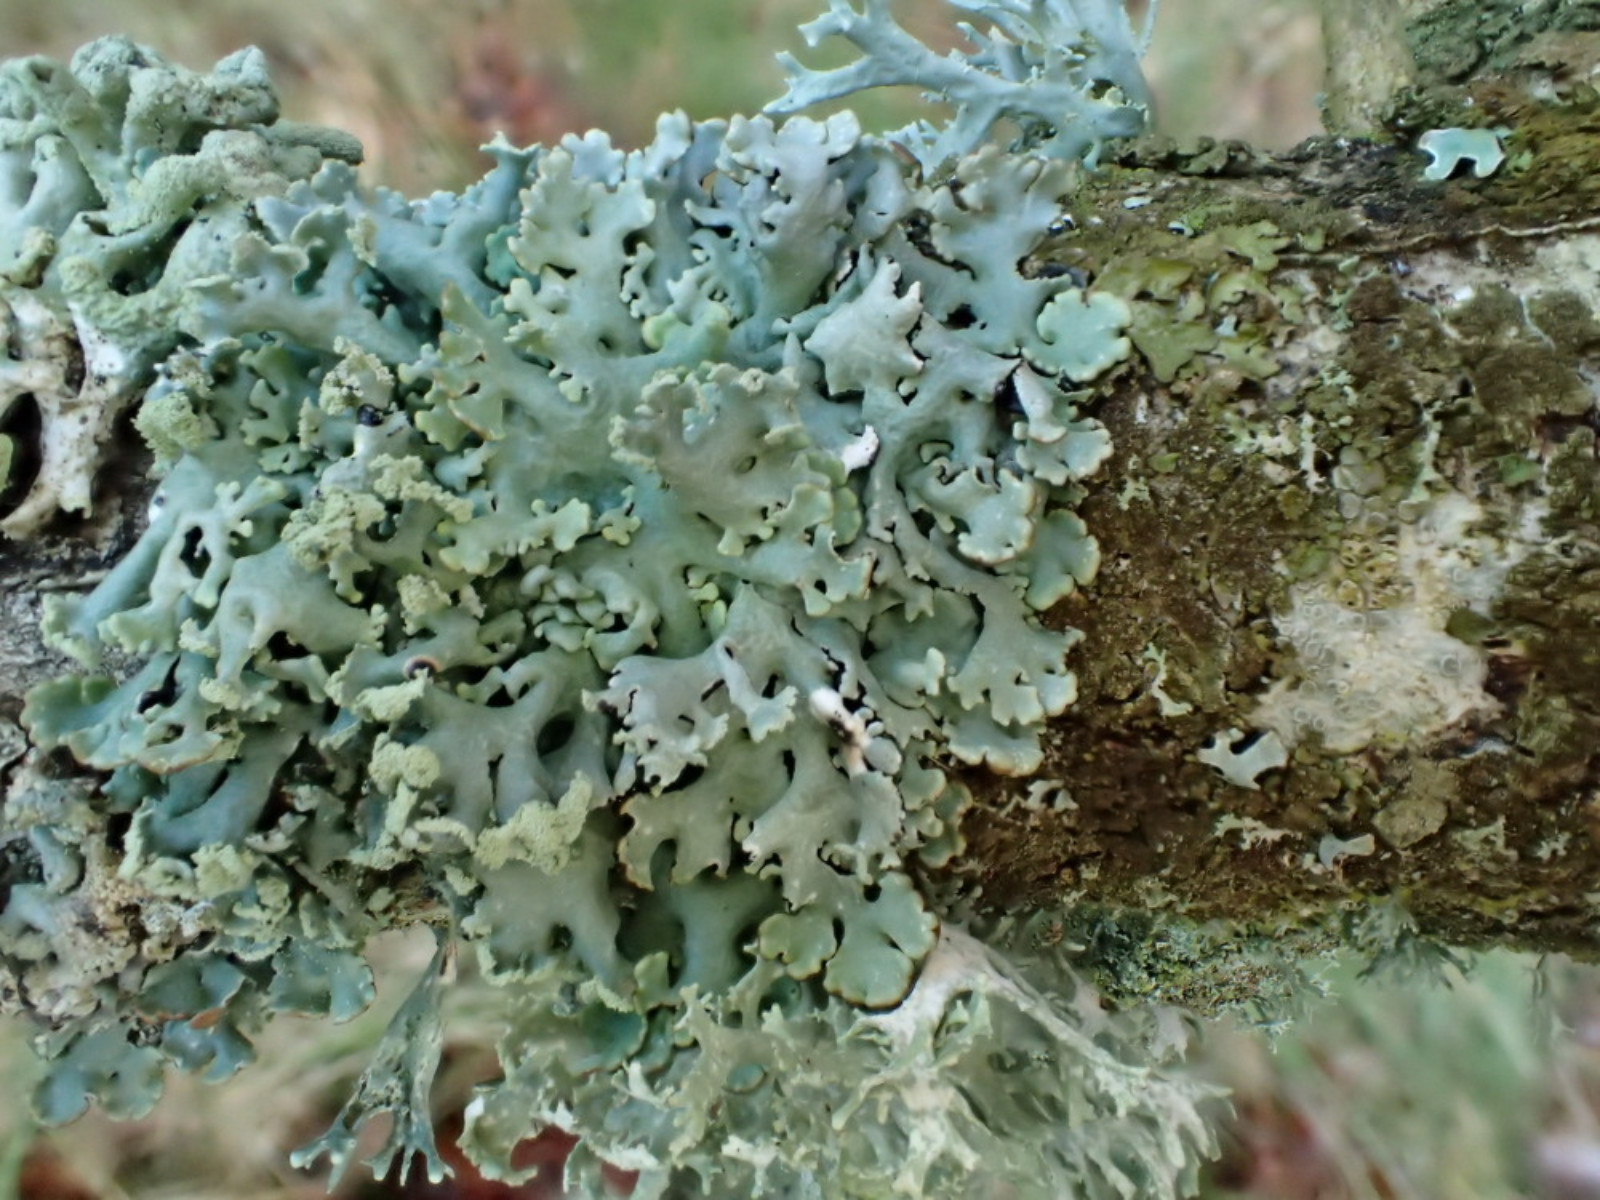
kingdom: Fungi
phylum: Ascomycota
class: Lecanoromycetes
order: Lecanorales
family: Parmeliaceae
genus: Hypogymnia
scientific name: Hypogymnia physodes
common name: almindelig kvistlav
